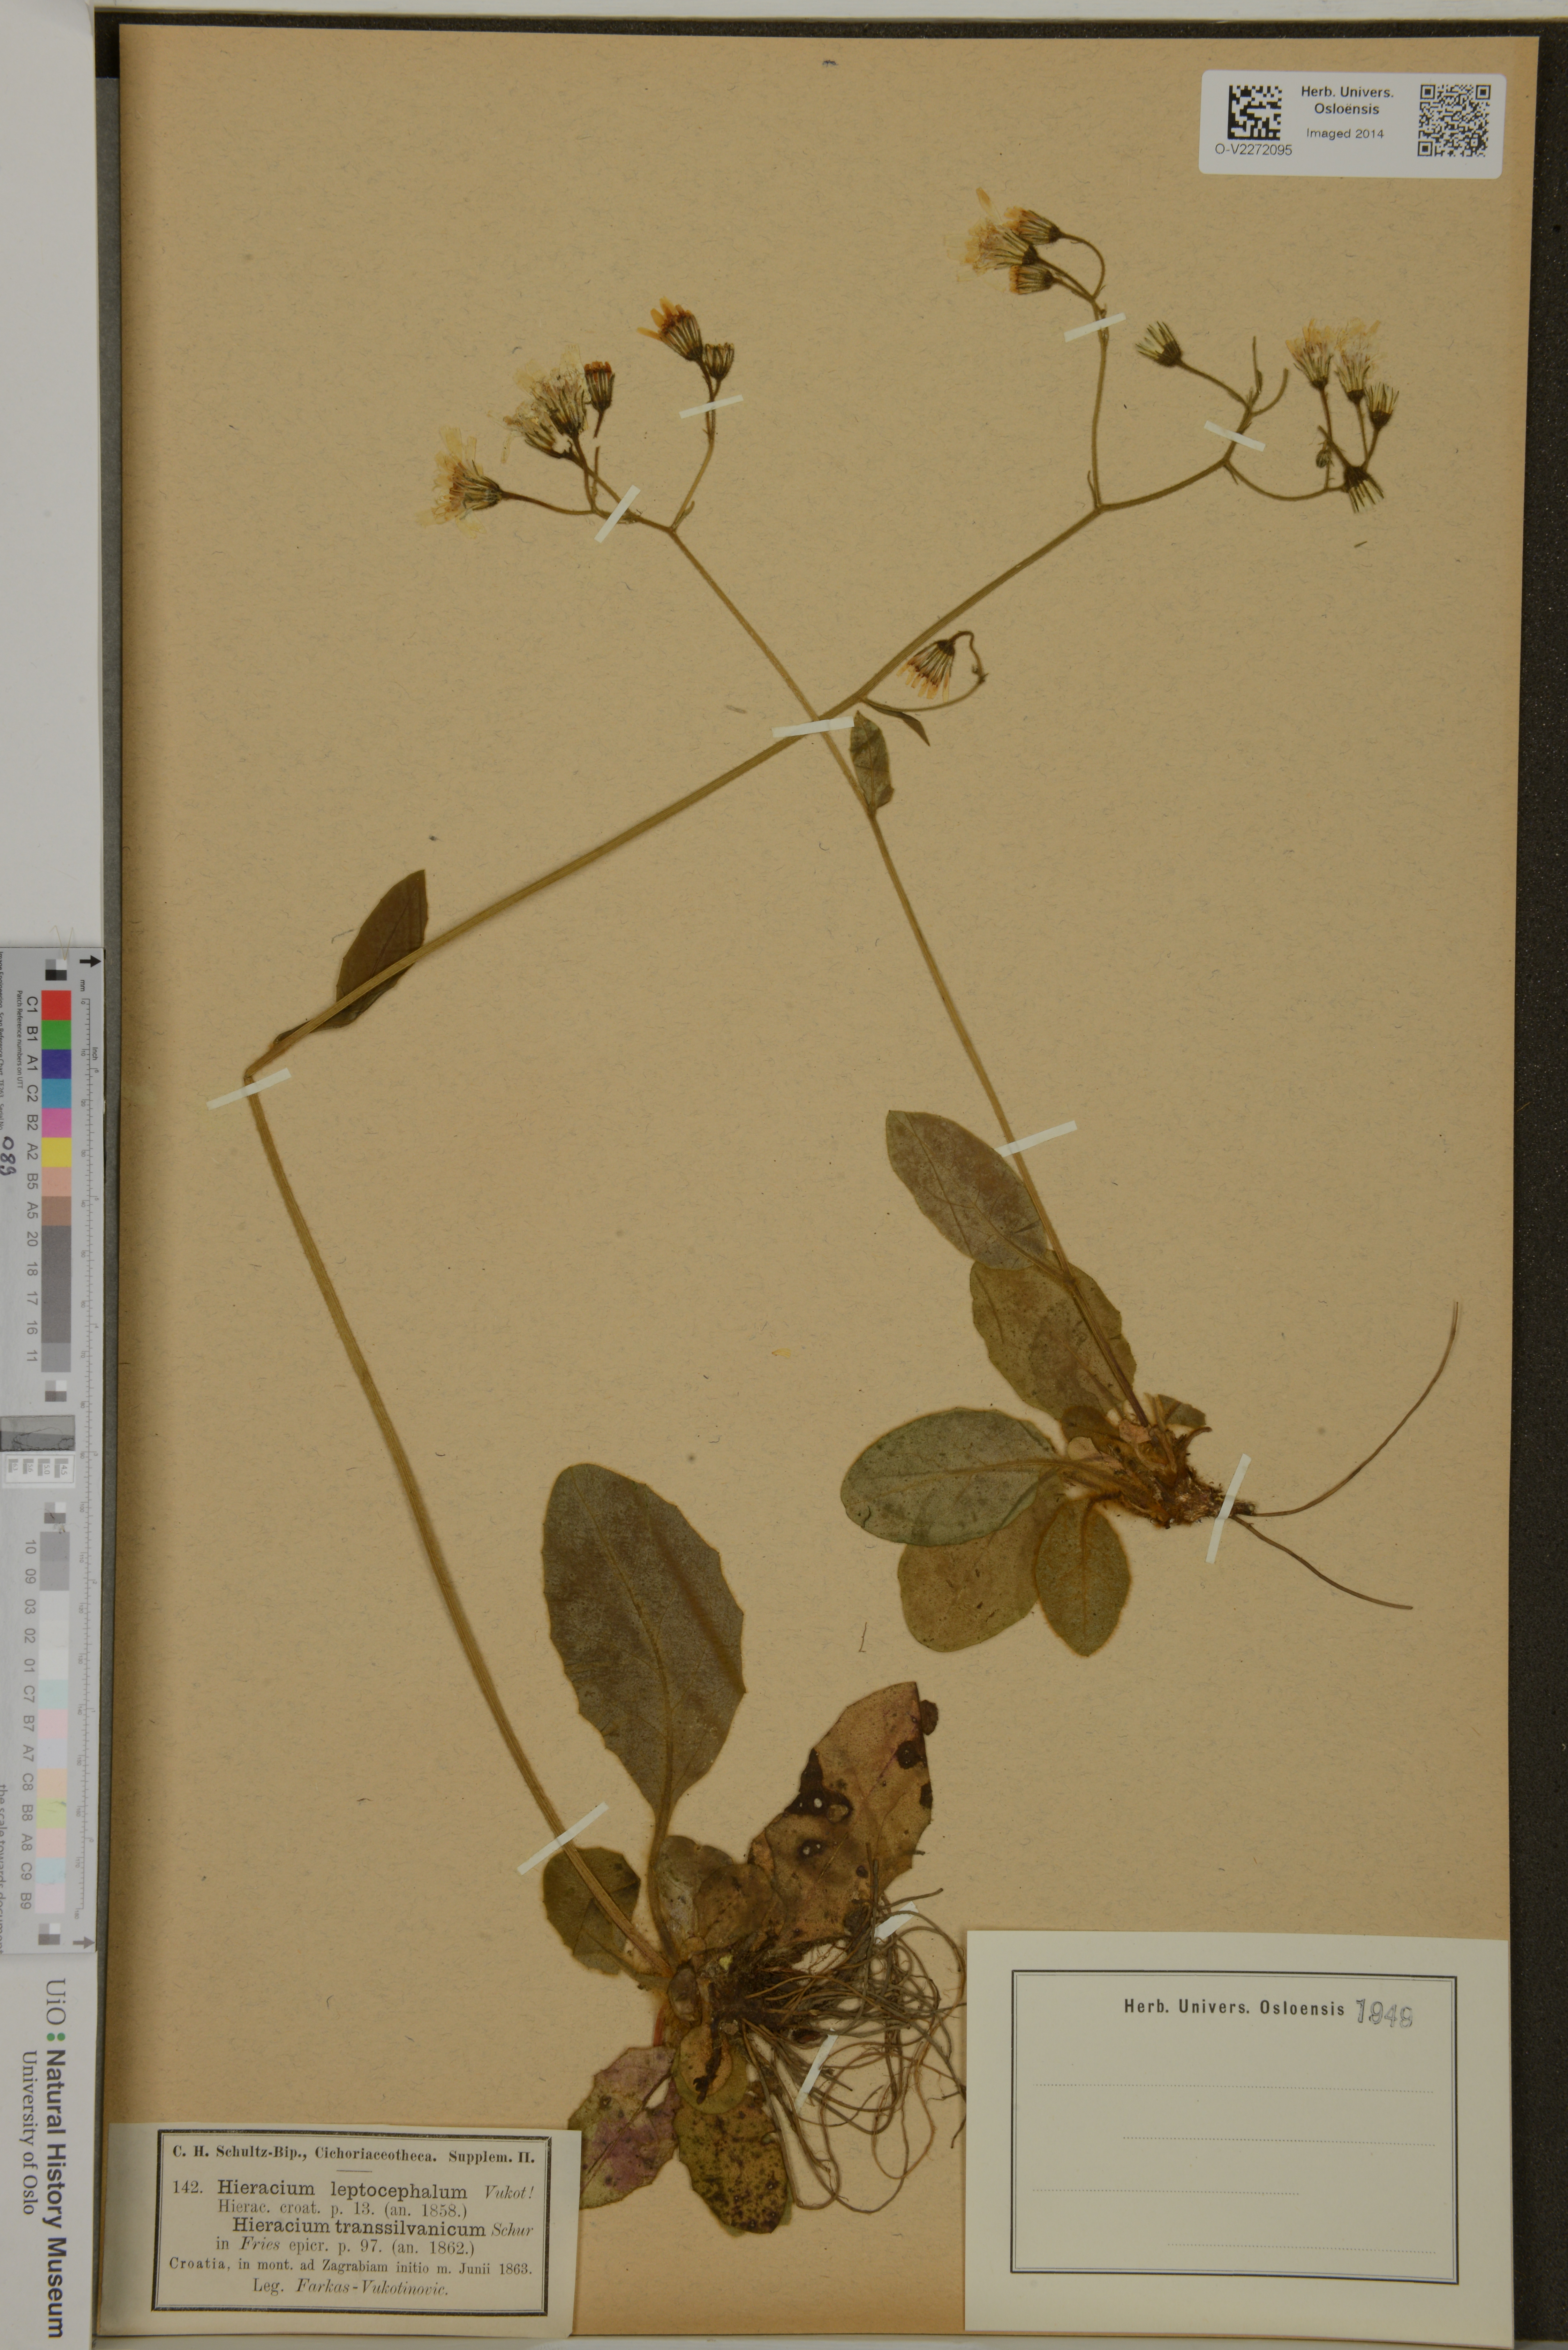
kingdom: Plantae
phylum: Tracheophyta
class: Magnoliopsida
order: Asterales
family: Asteraceae
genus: Pilosella
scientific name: Pilosella leptophyton
